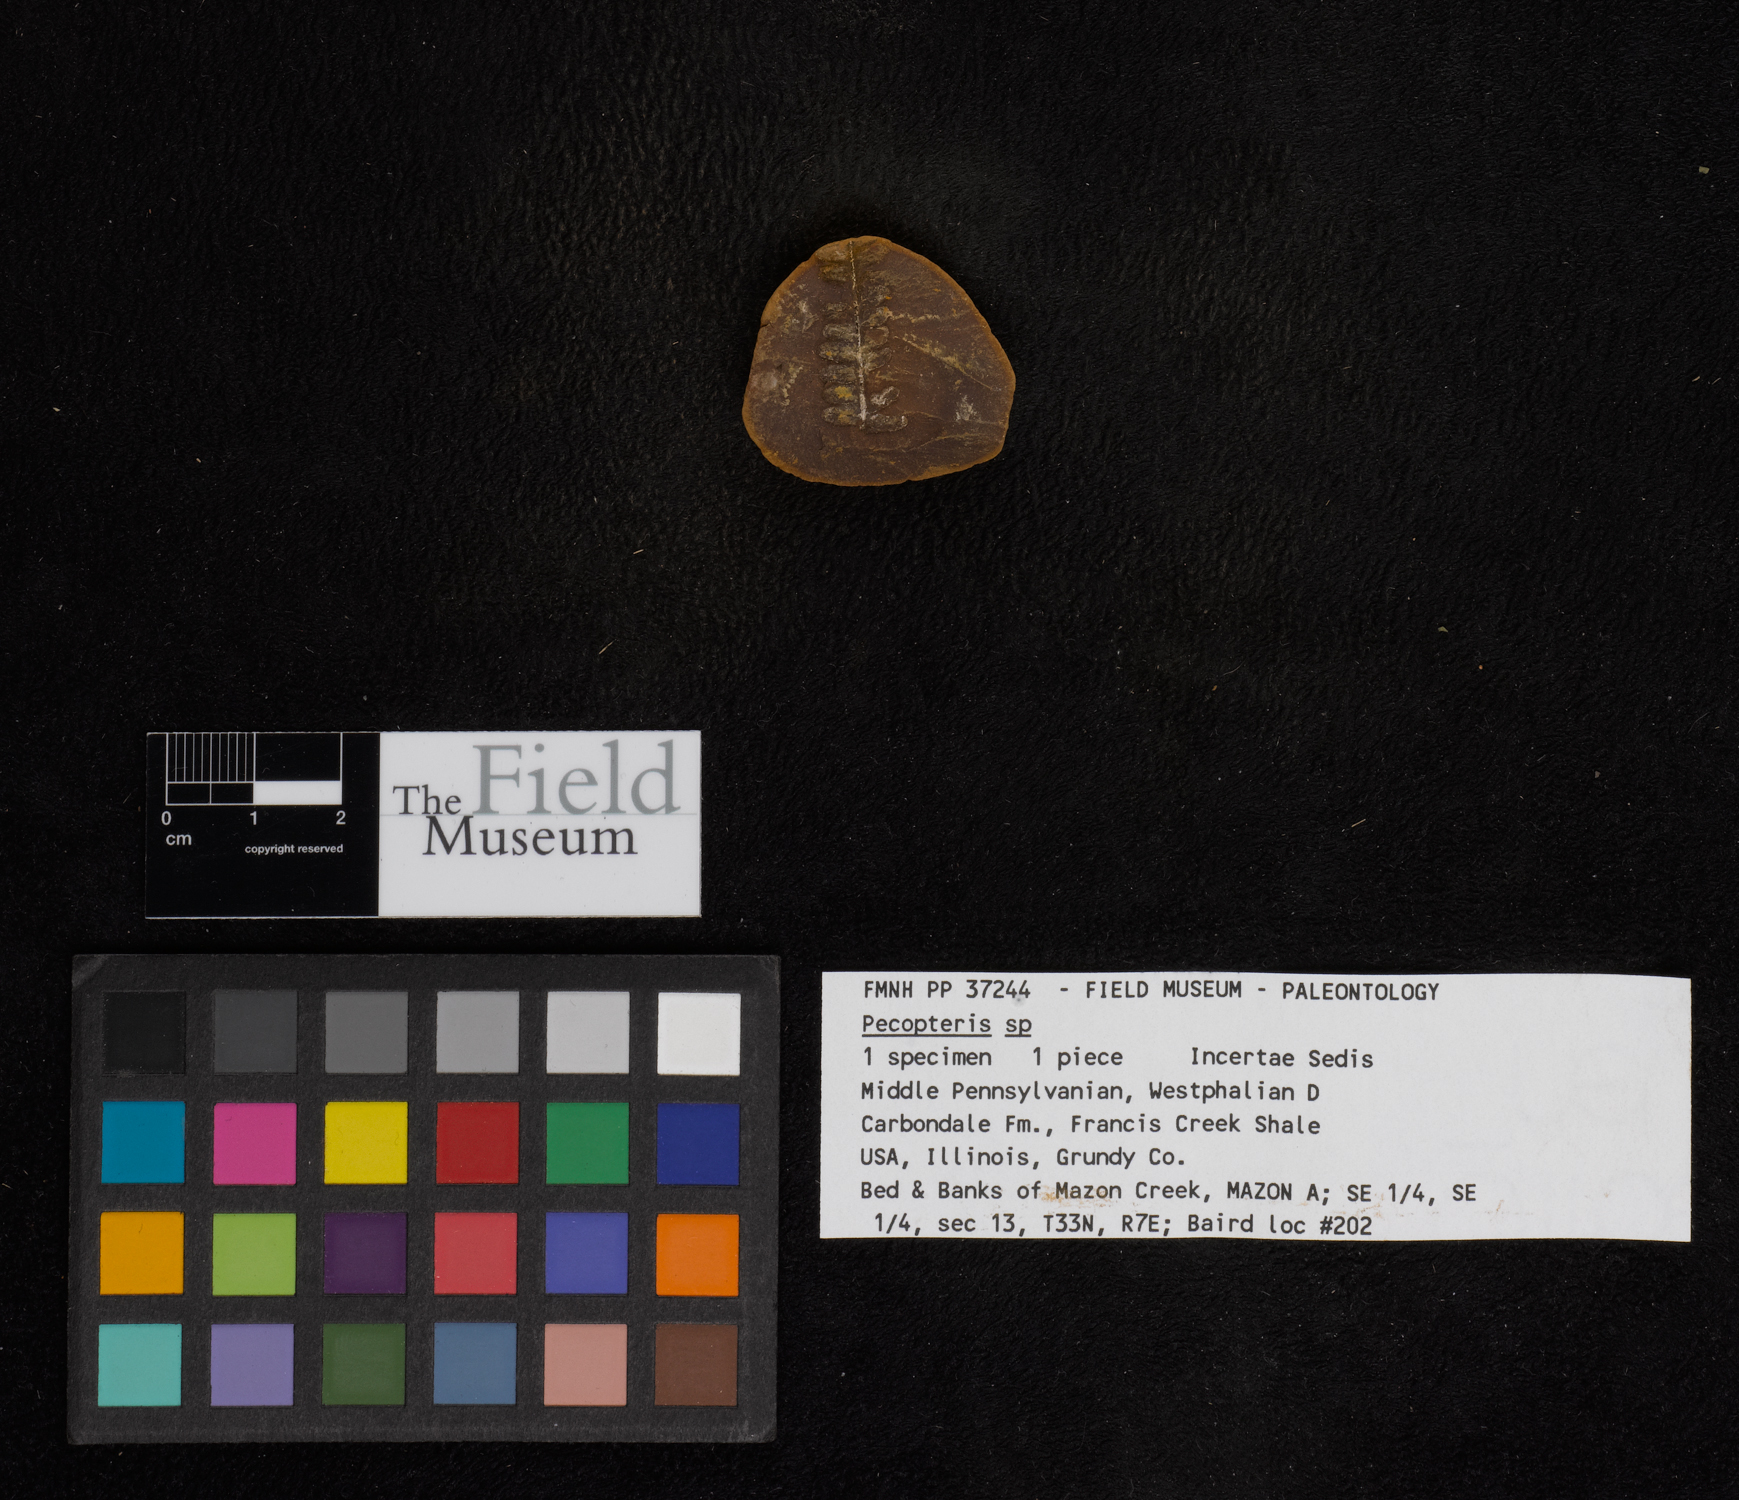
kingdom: Plantae
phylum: Tracheophyta
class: Polypodiopsida
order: Marattiales
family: Asterothecaceae
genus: Pecopteris
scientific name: Pecopteris
